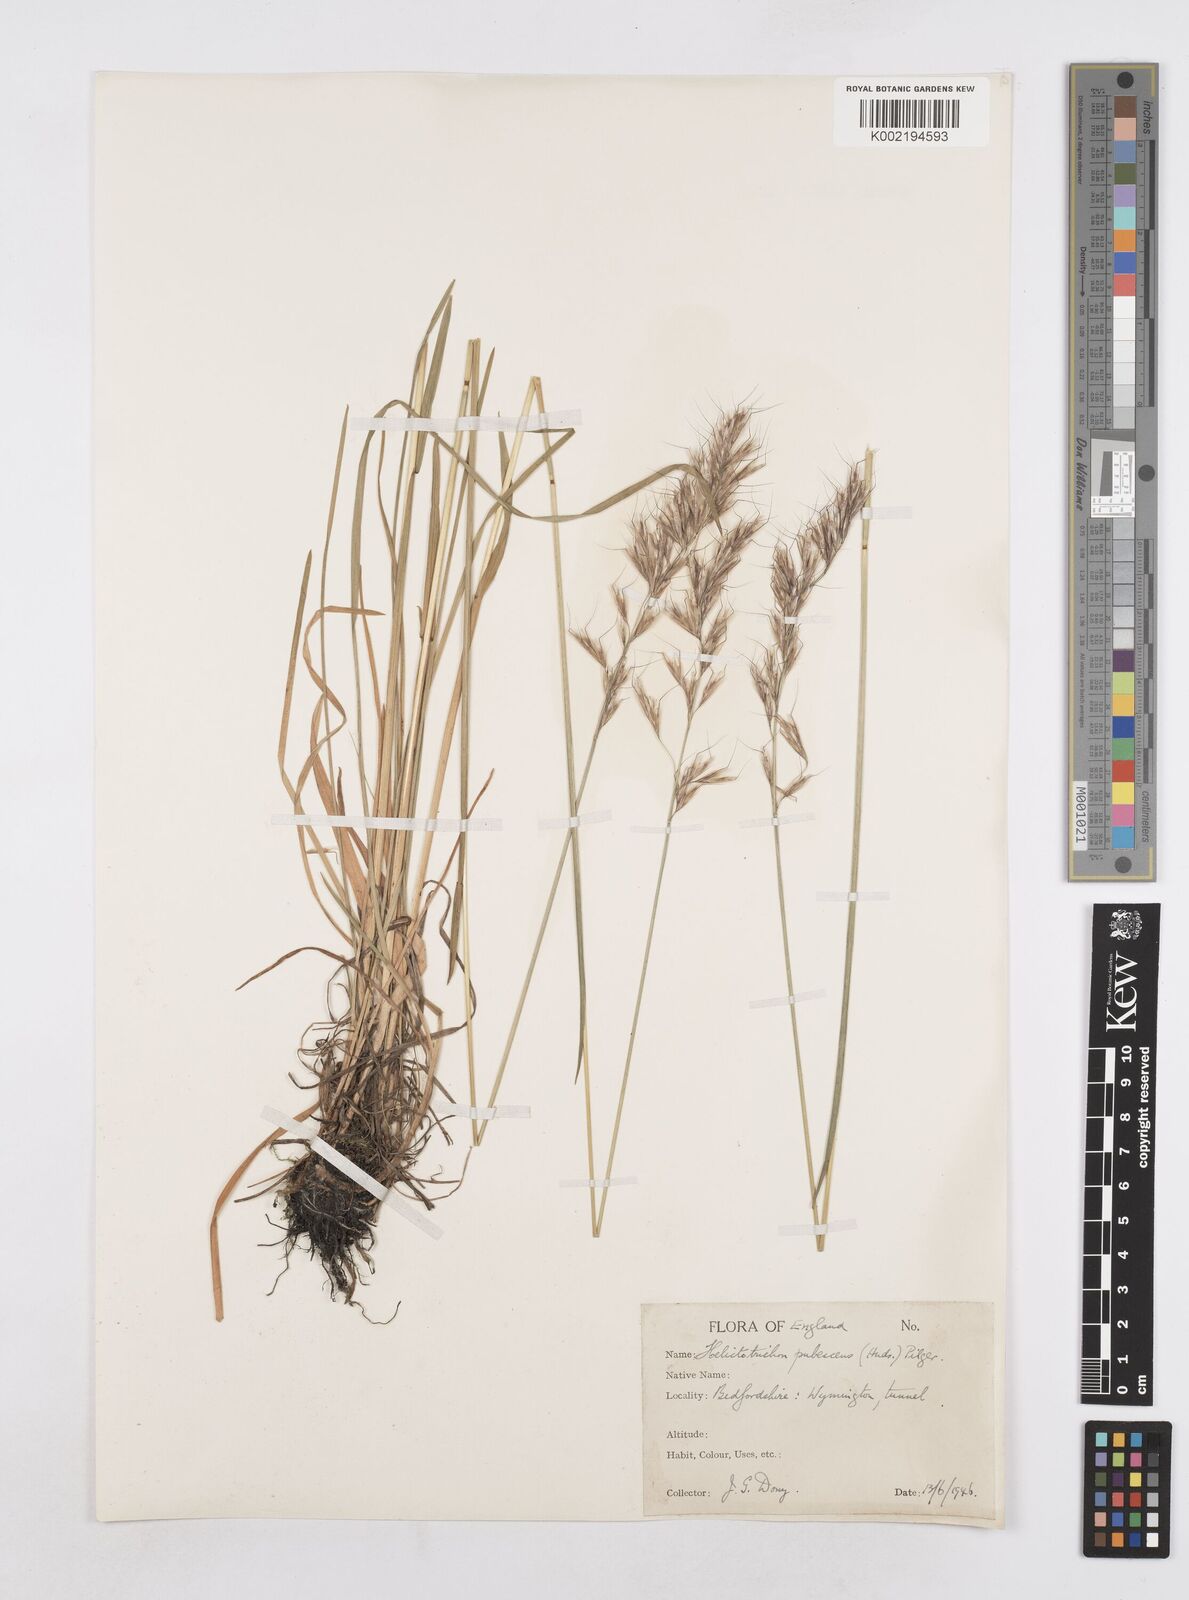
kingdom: Plantae
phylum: Tracheophyta
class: Liliopsida
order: Poales
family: Poaceae
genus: Avenula
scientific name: Avenula pubescens
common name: Downy alpine oatgrass
